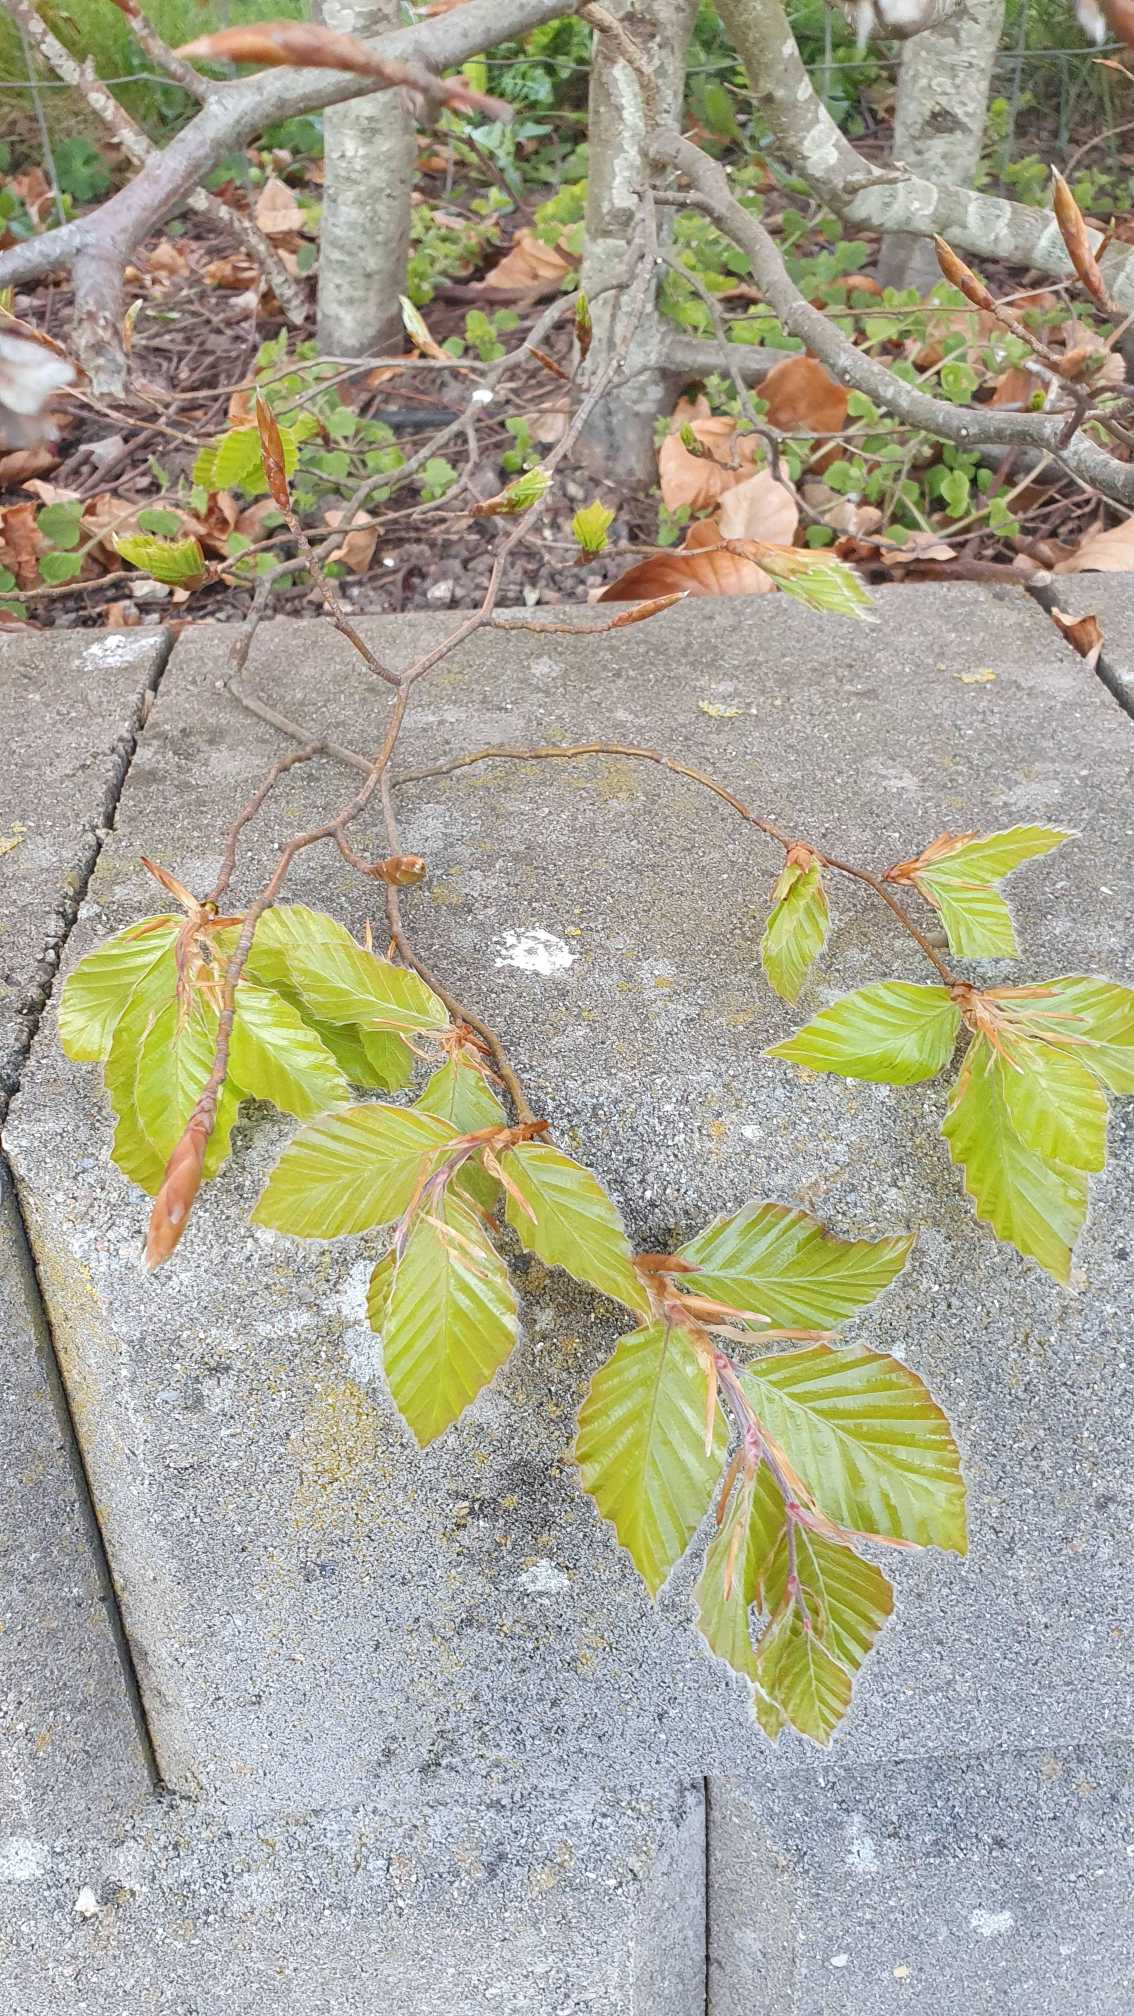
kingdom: Plantae
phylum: Tracheophyta
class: Magnoliopsida
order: Fagales
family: Fagaceae
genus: Fagus
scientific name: Fagus sylvatica
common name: Bøg
